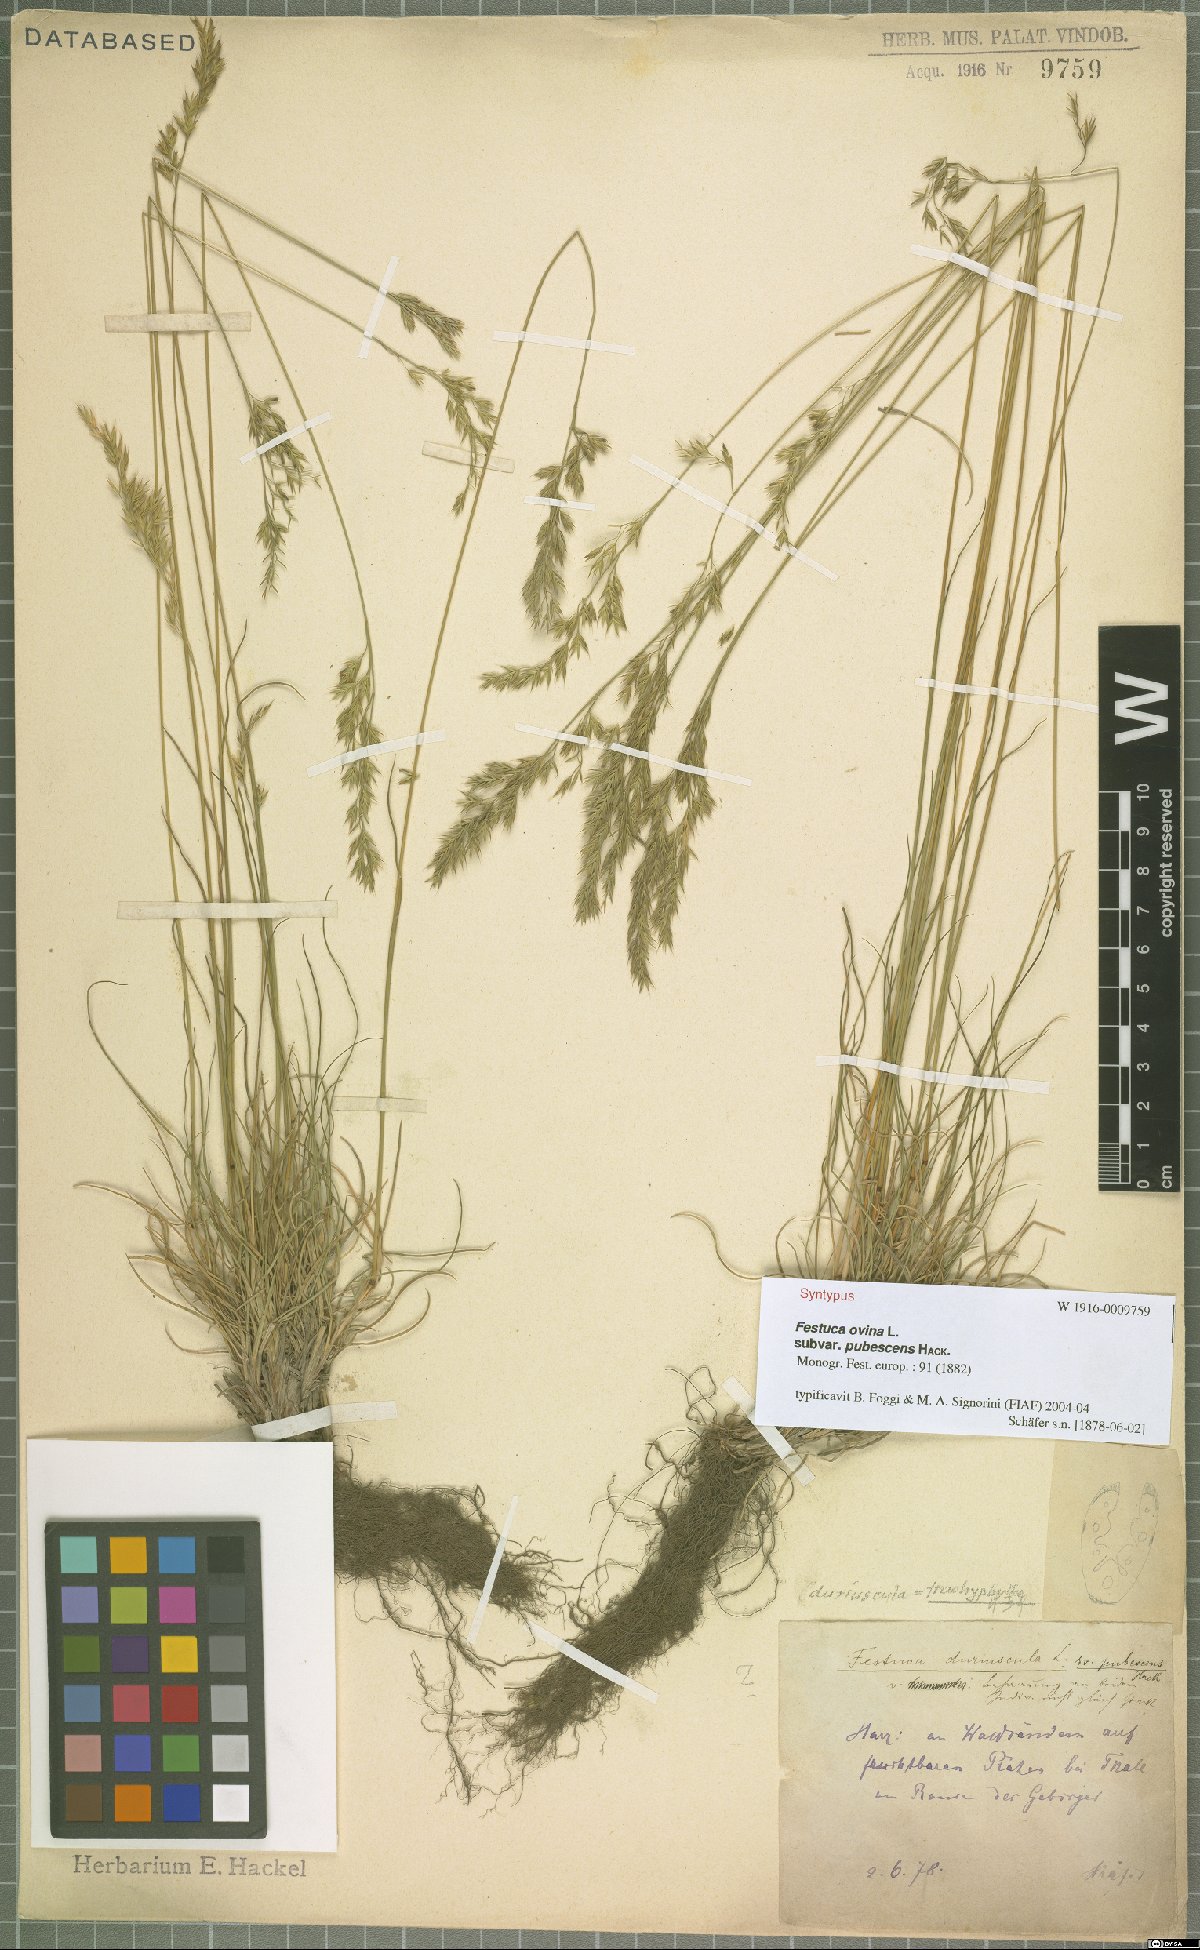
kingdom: Plantae
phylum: Tracheophyta
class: Liliopsida
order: Poales
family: Poaceae
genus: Festuca
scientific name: Festuca ovina
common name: Sheep fescue
